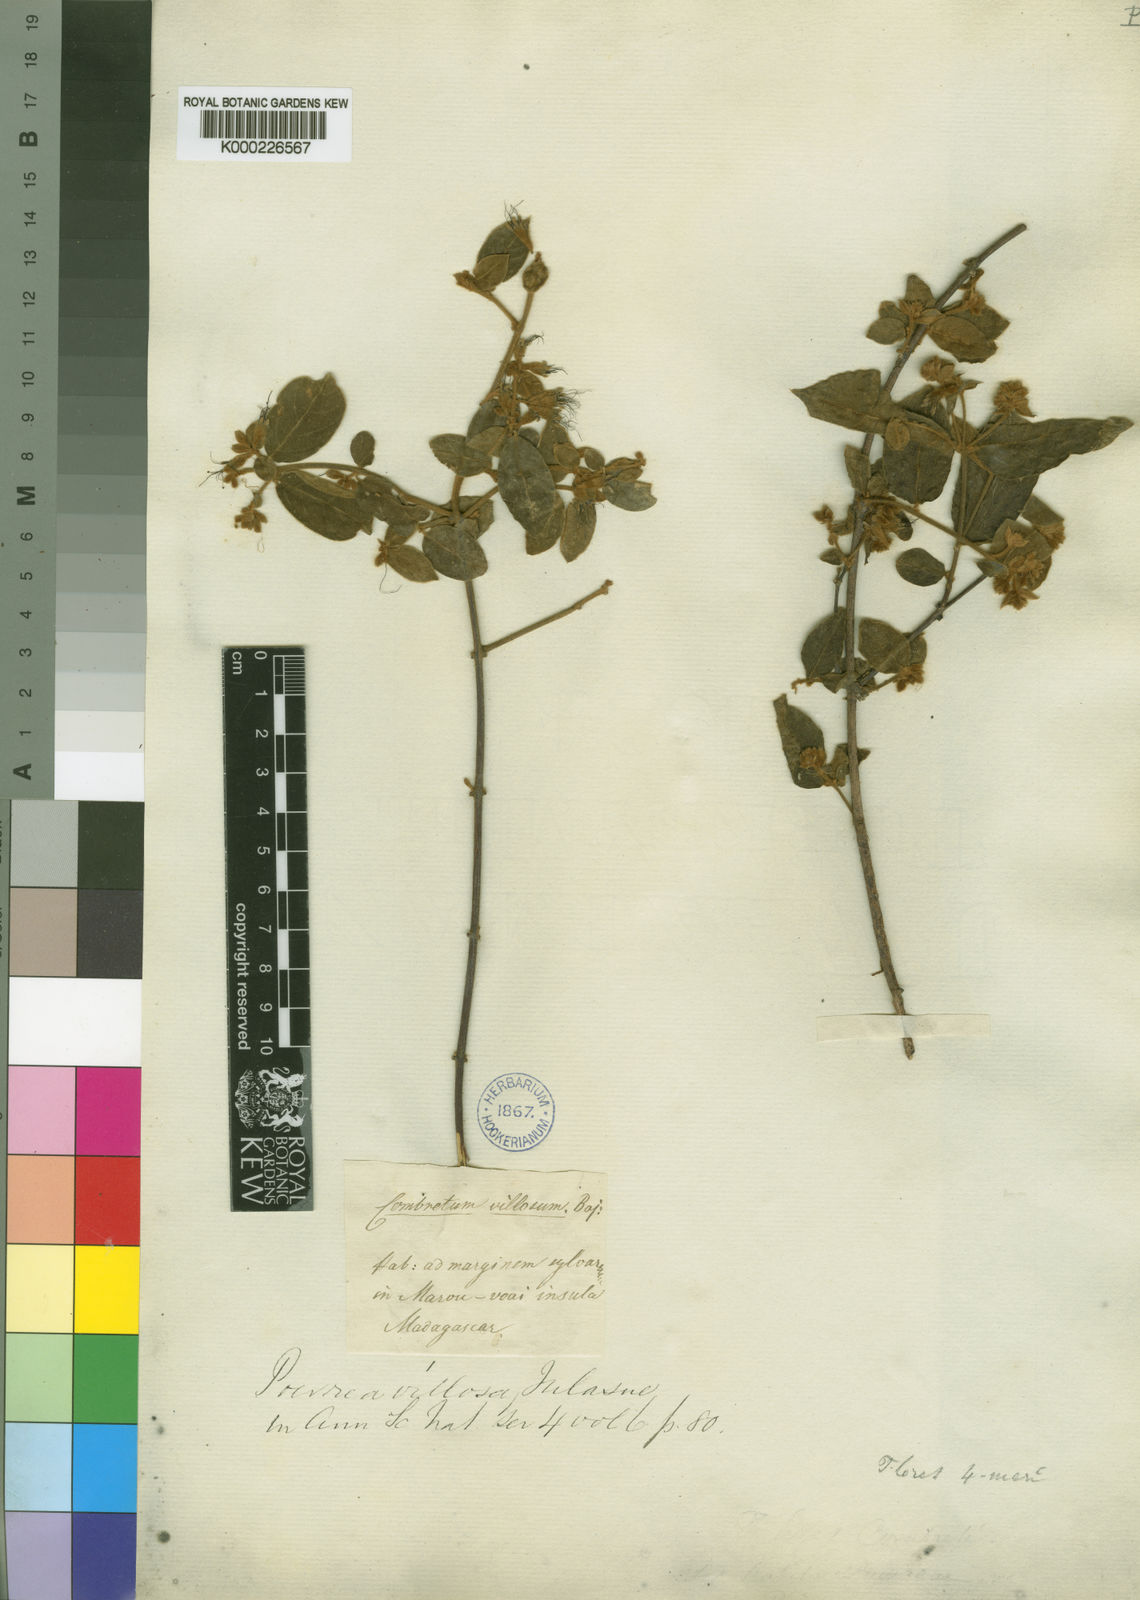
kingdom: Plantae
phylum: Tracheophyta
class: Magnoliopsida
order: Myrtales
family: Combretaceae
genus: Combretum
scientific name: Combretum
